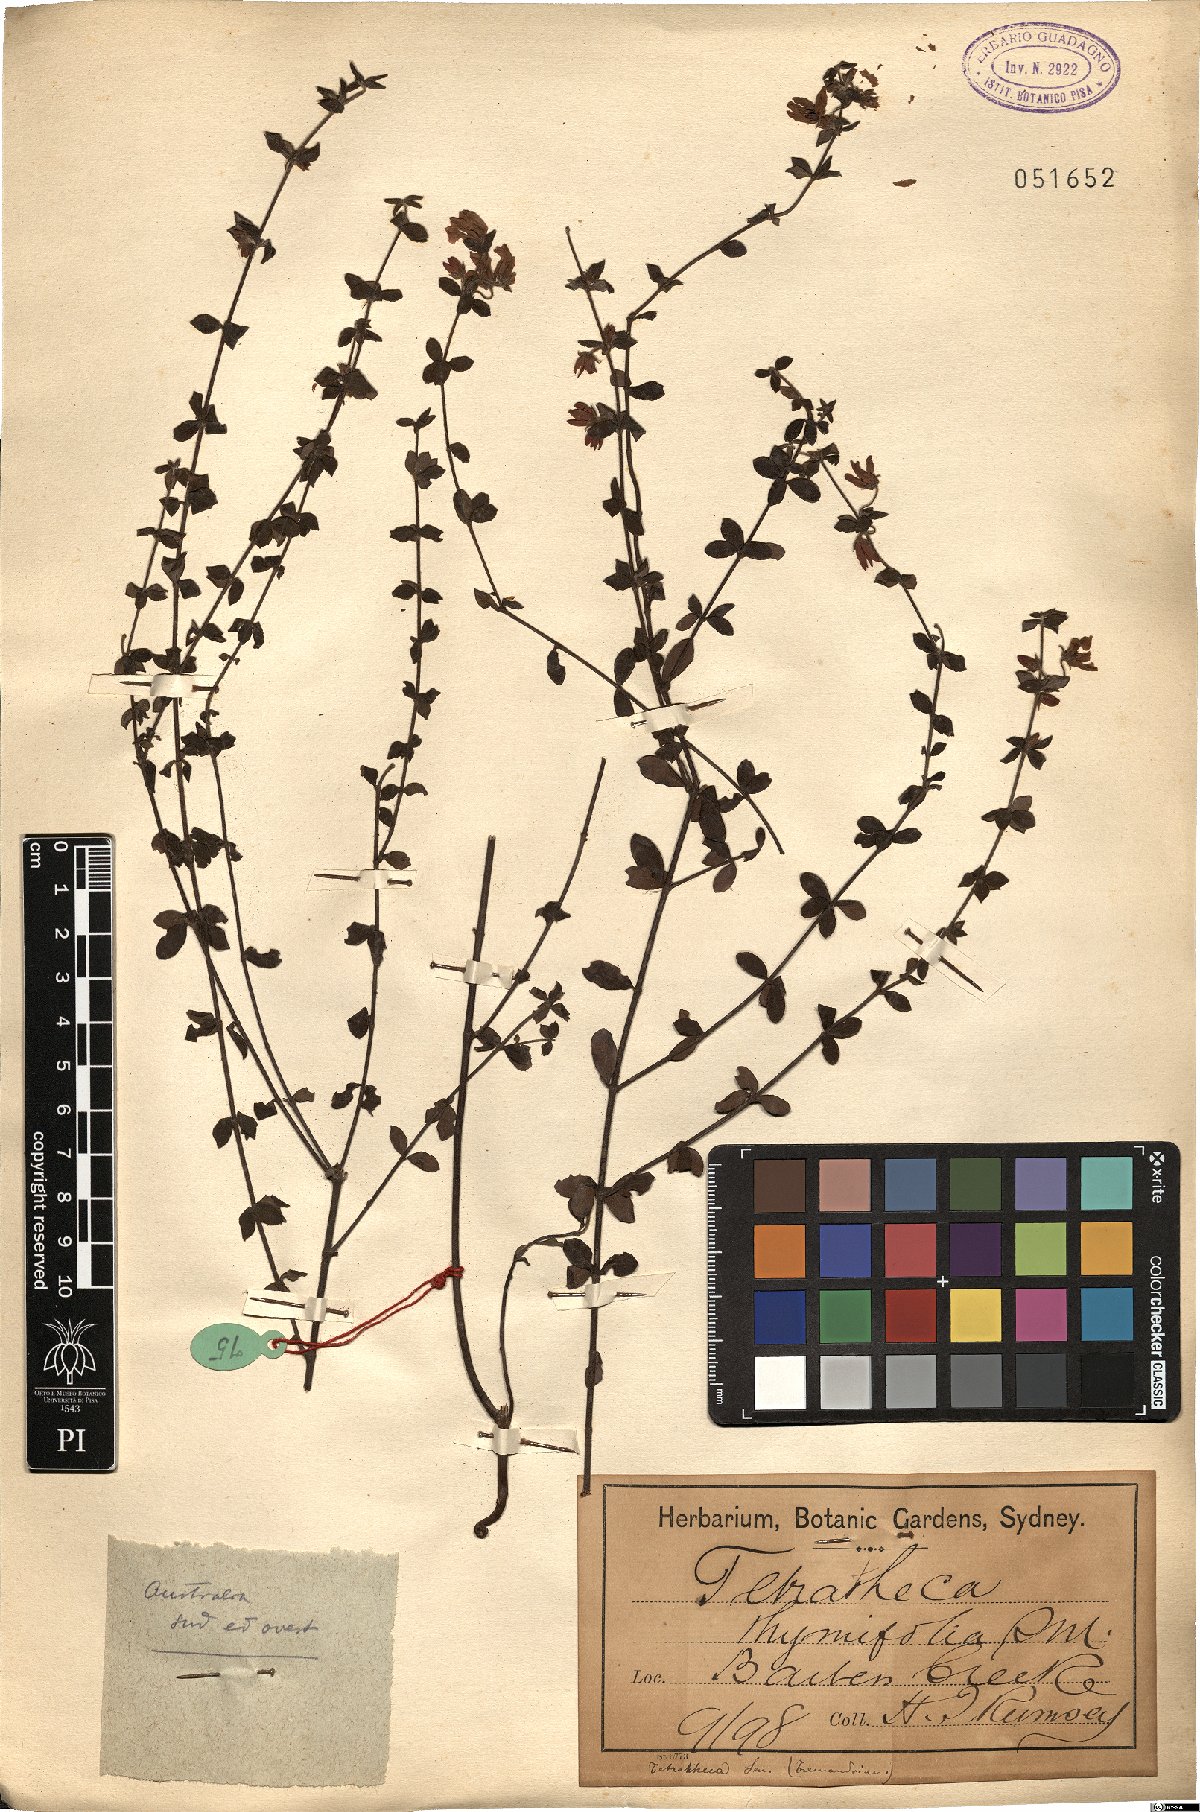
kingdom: Plantae
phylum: Tracheophyta
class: Magnoliopsida
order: Oxalidales
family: Elaeocarpaceae
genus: Tetratheca
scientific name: Tetratheca thymifolia
